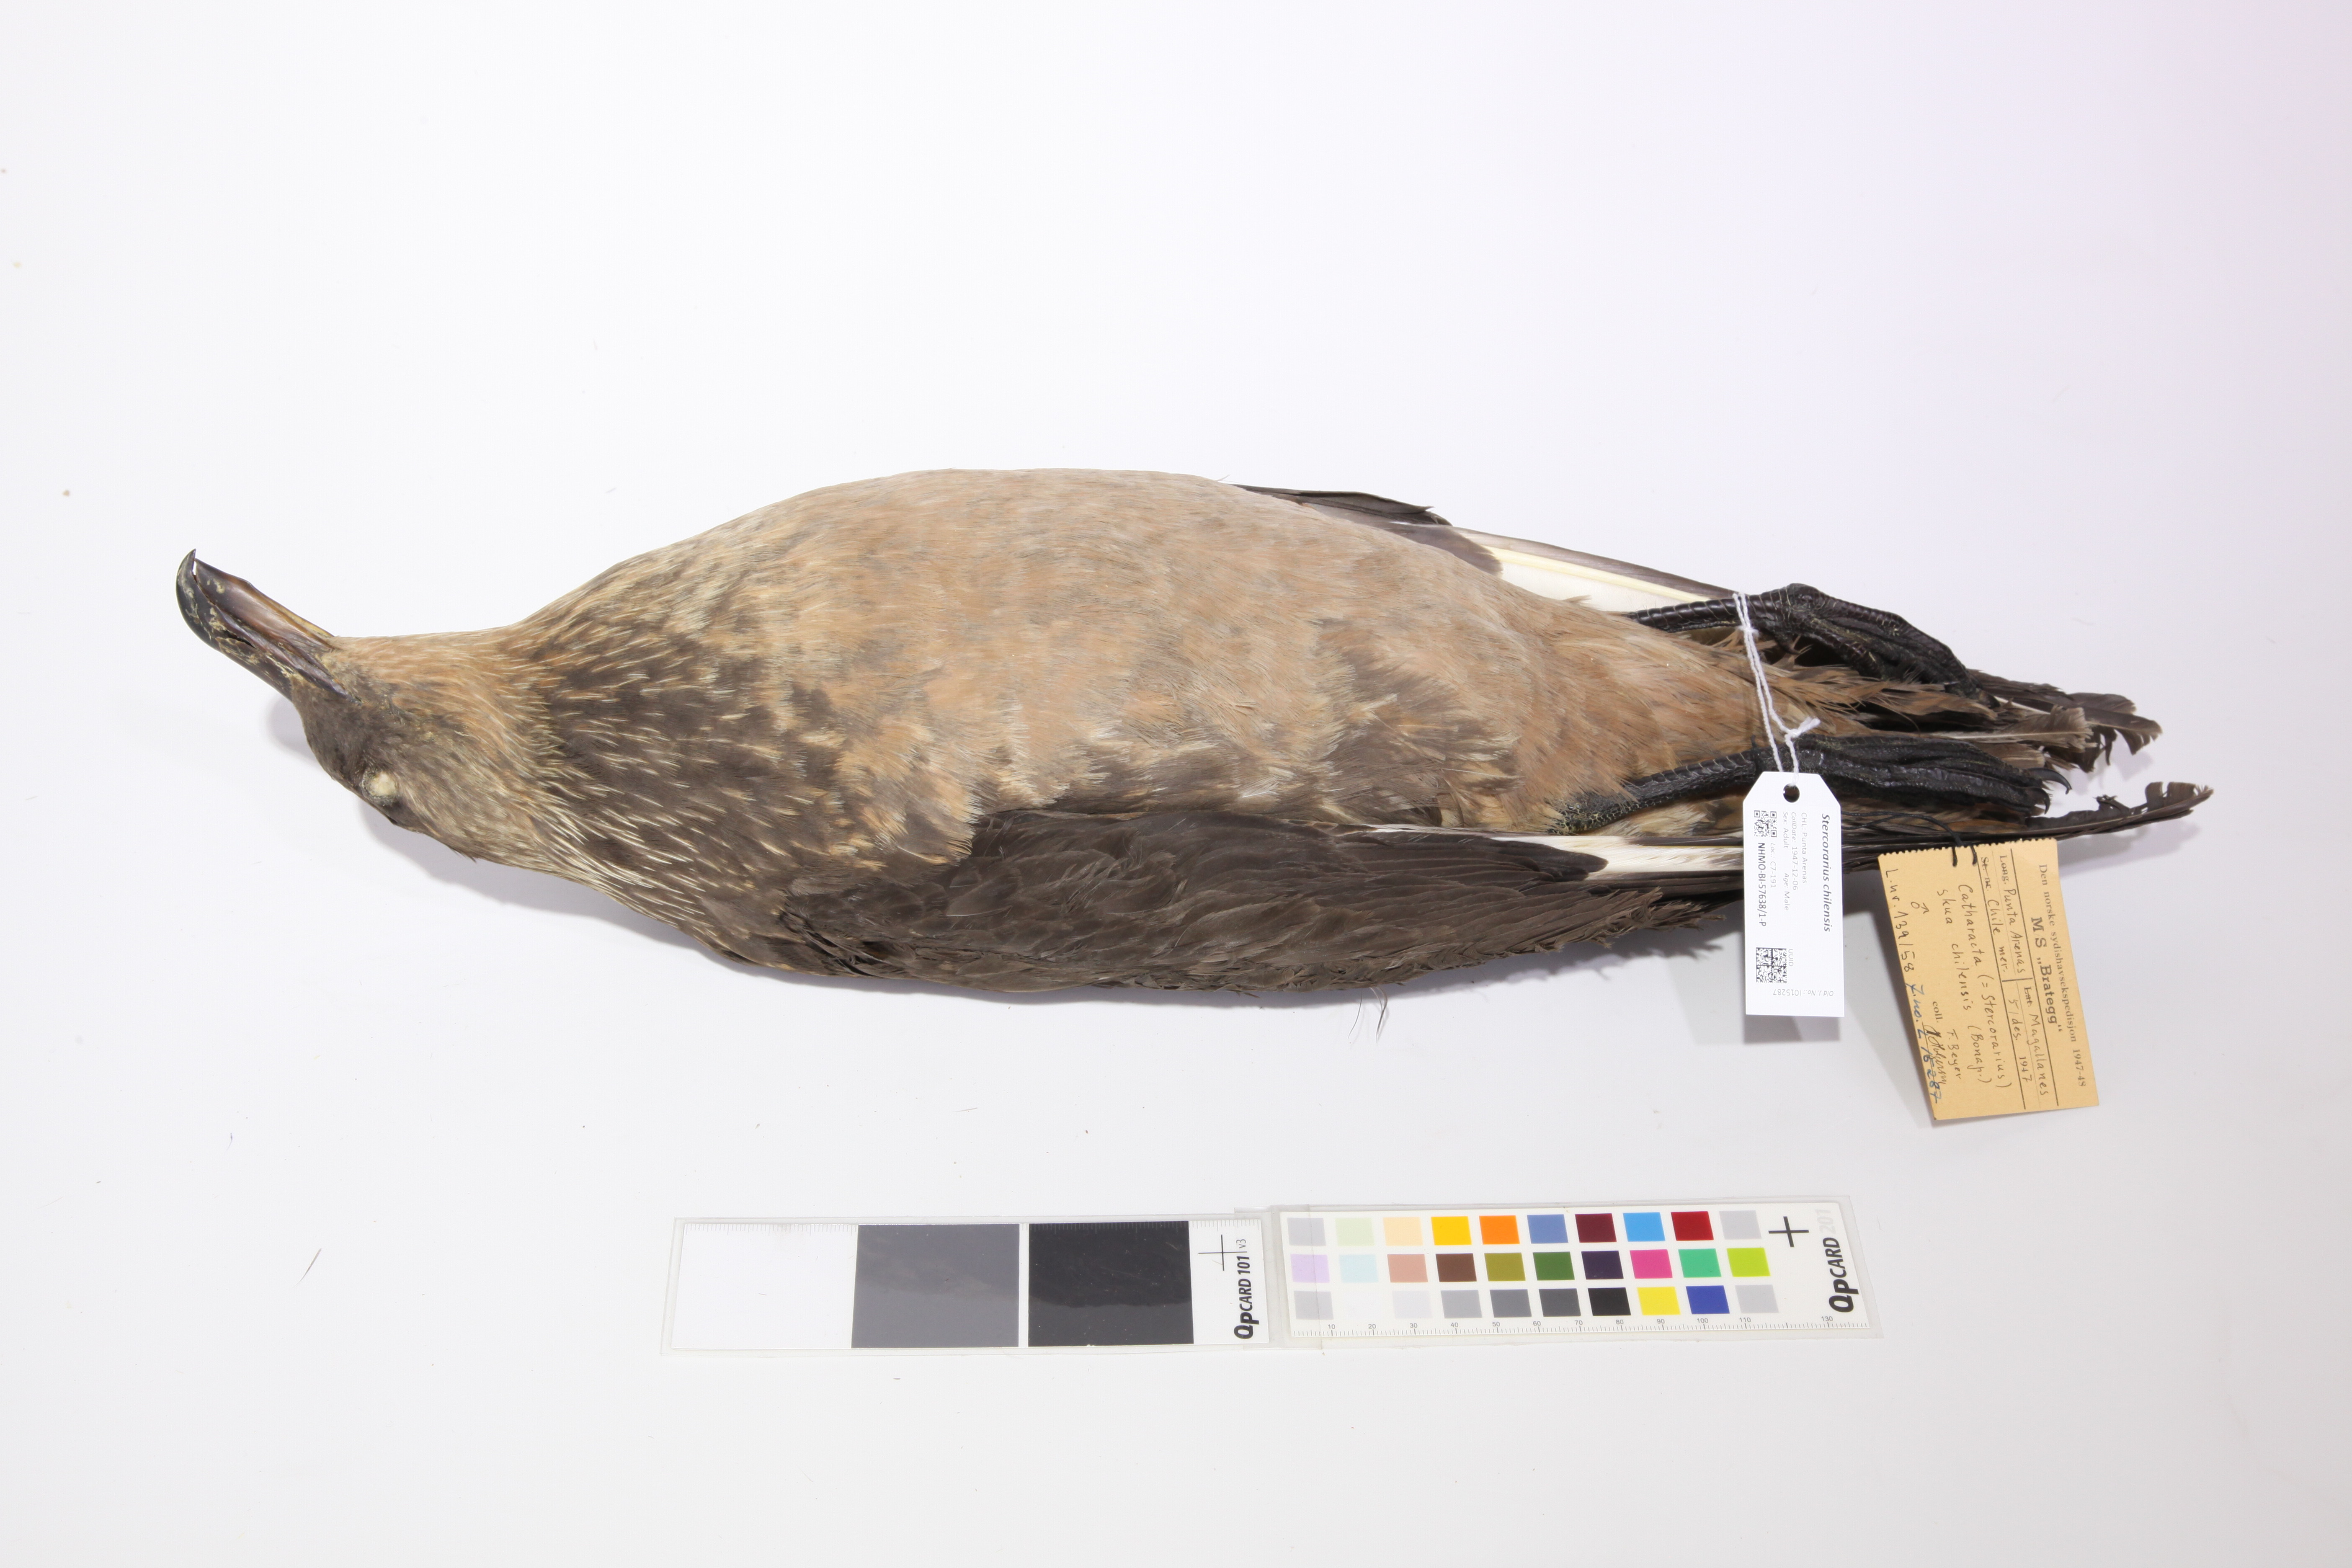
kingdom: Animalia
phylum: Chordata
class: Aves
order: Charadriiformes
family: Stercorariidae
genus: Stercorarius
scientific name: Stercorarius chilensis
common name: Chilean skua
